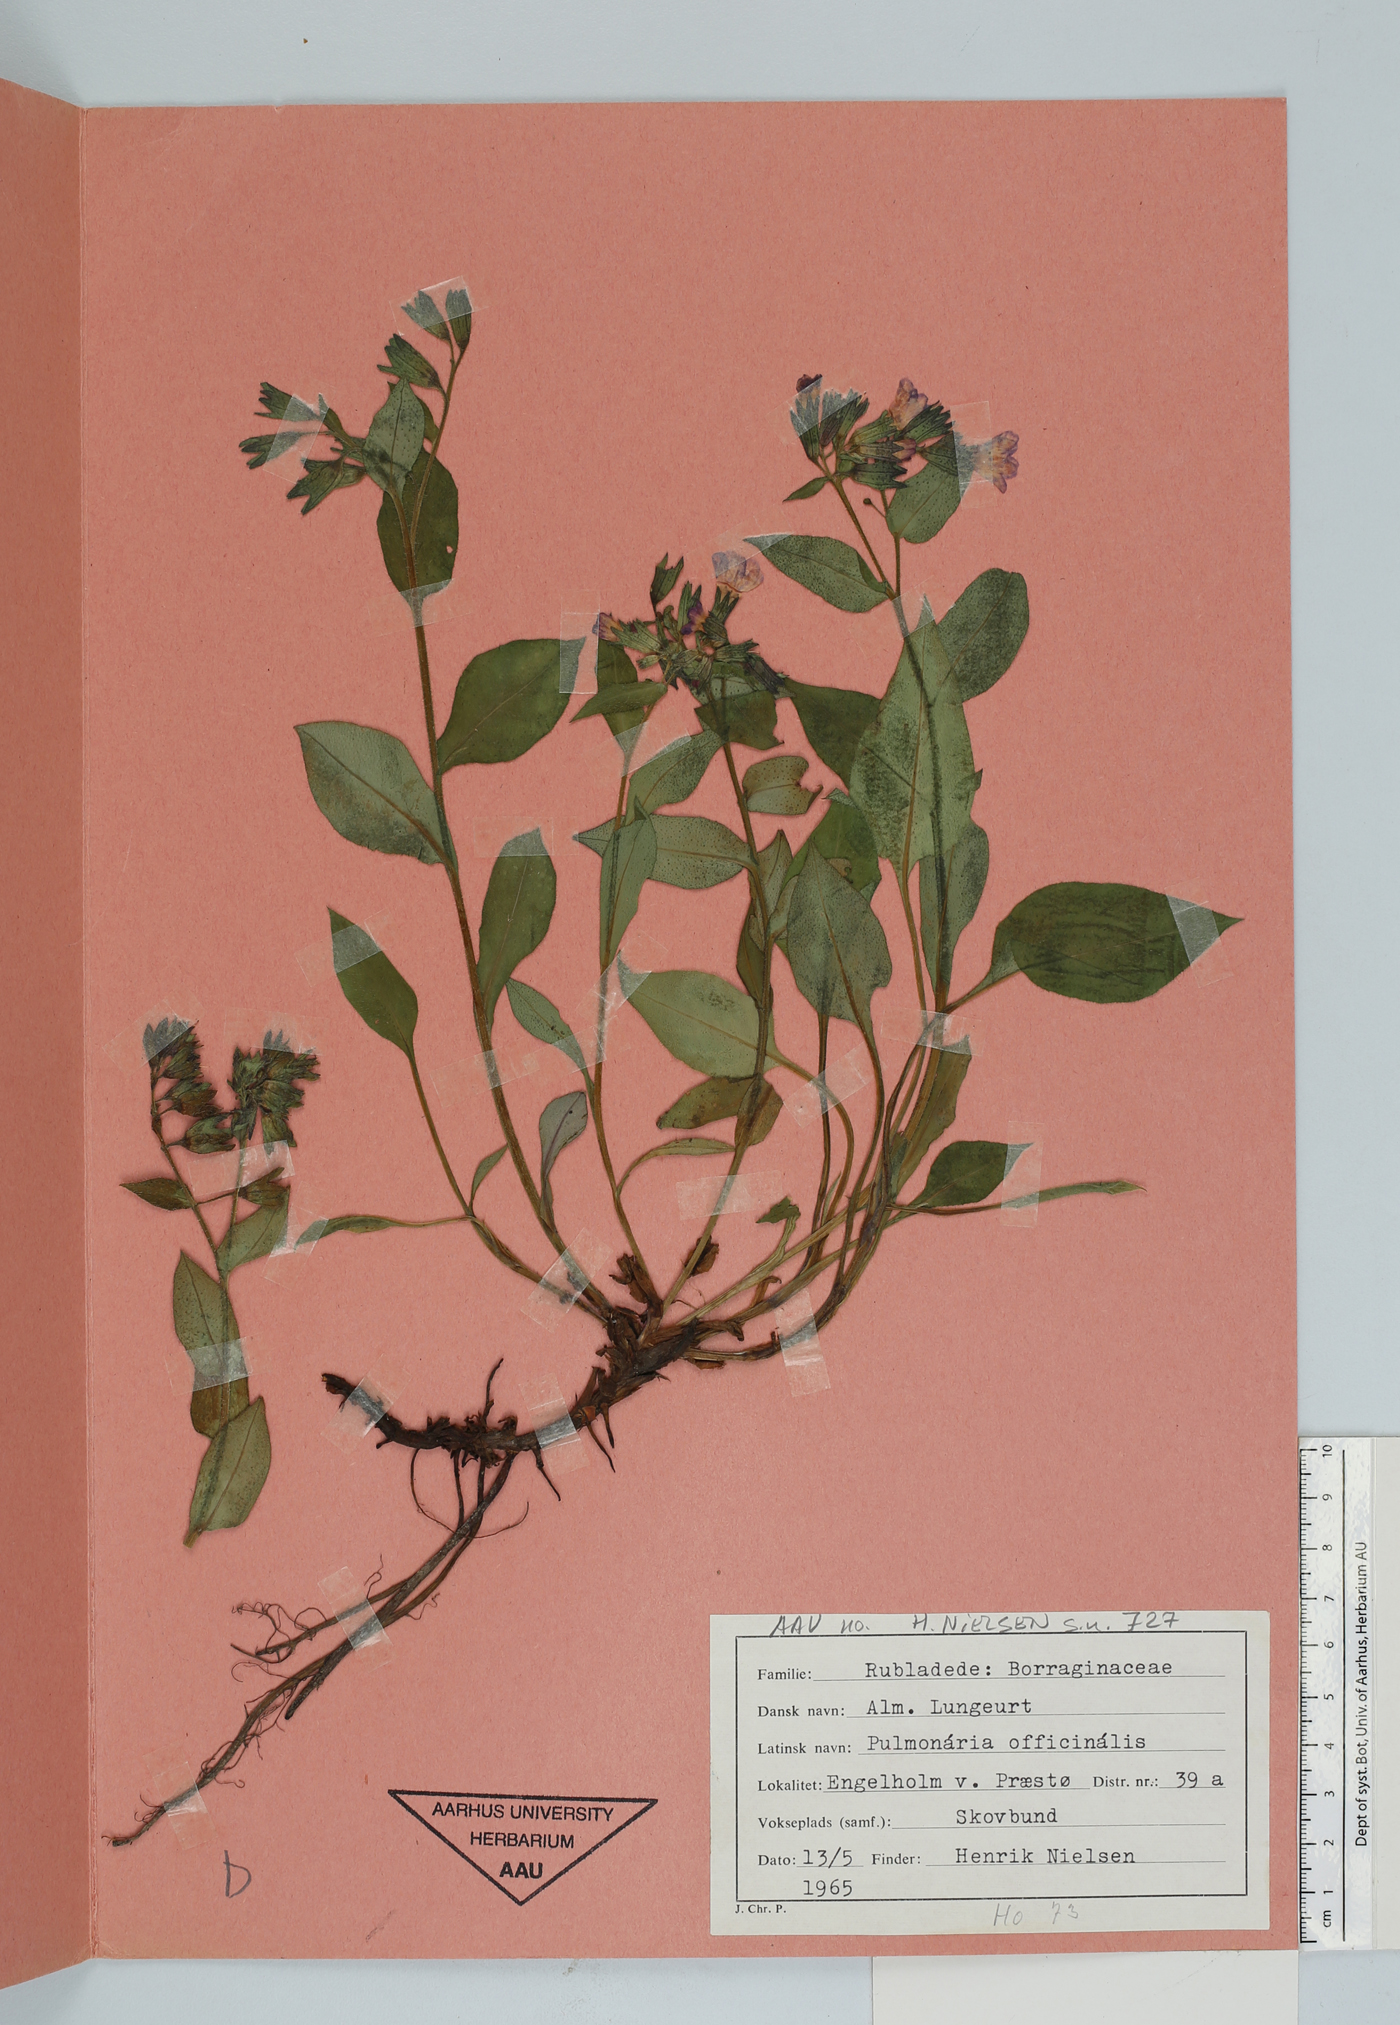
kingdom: Plantae
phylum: Tracheophyta
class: Magnoliopsida
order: Boraginales
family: Boraginaceae
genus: Pulmonaria
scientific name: Pulmonaria officinalis
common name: Lungwort
